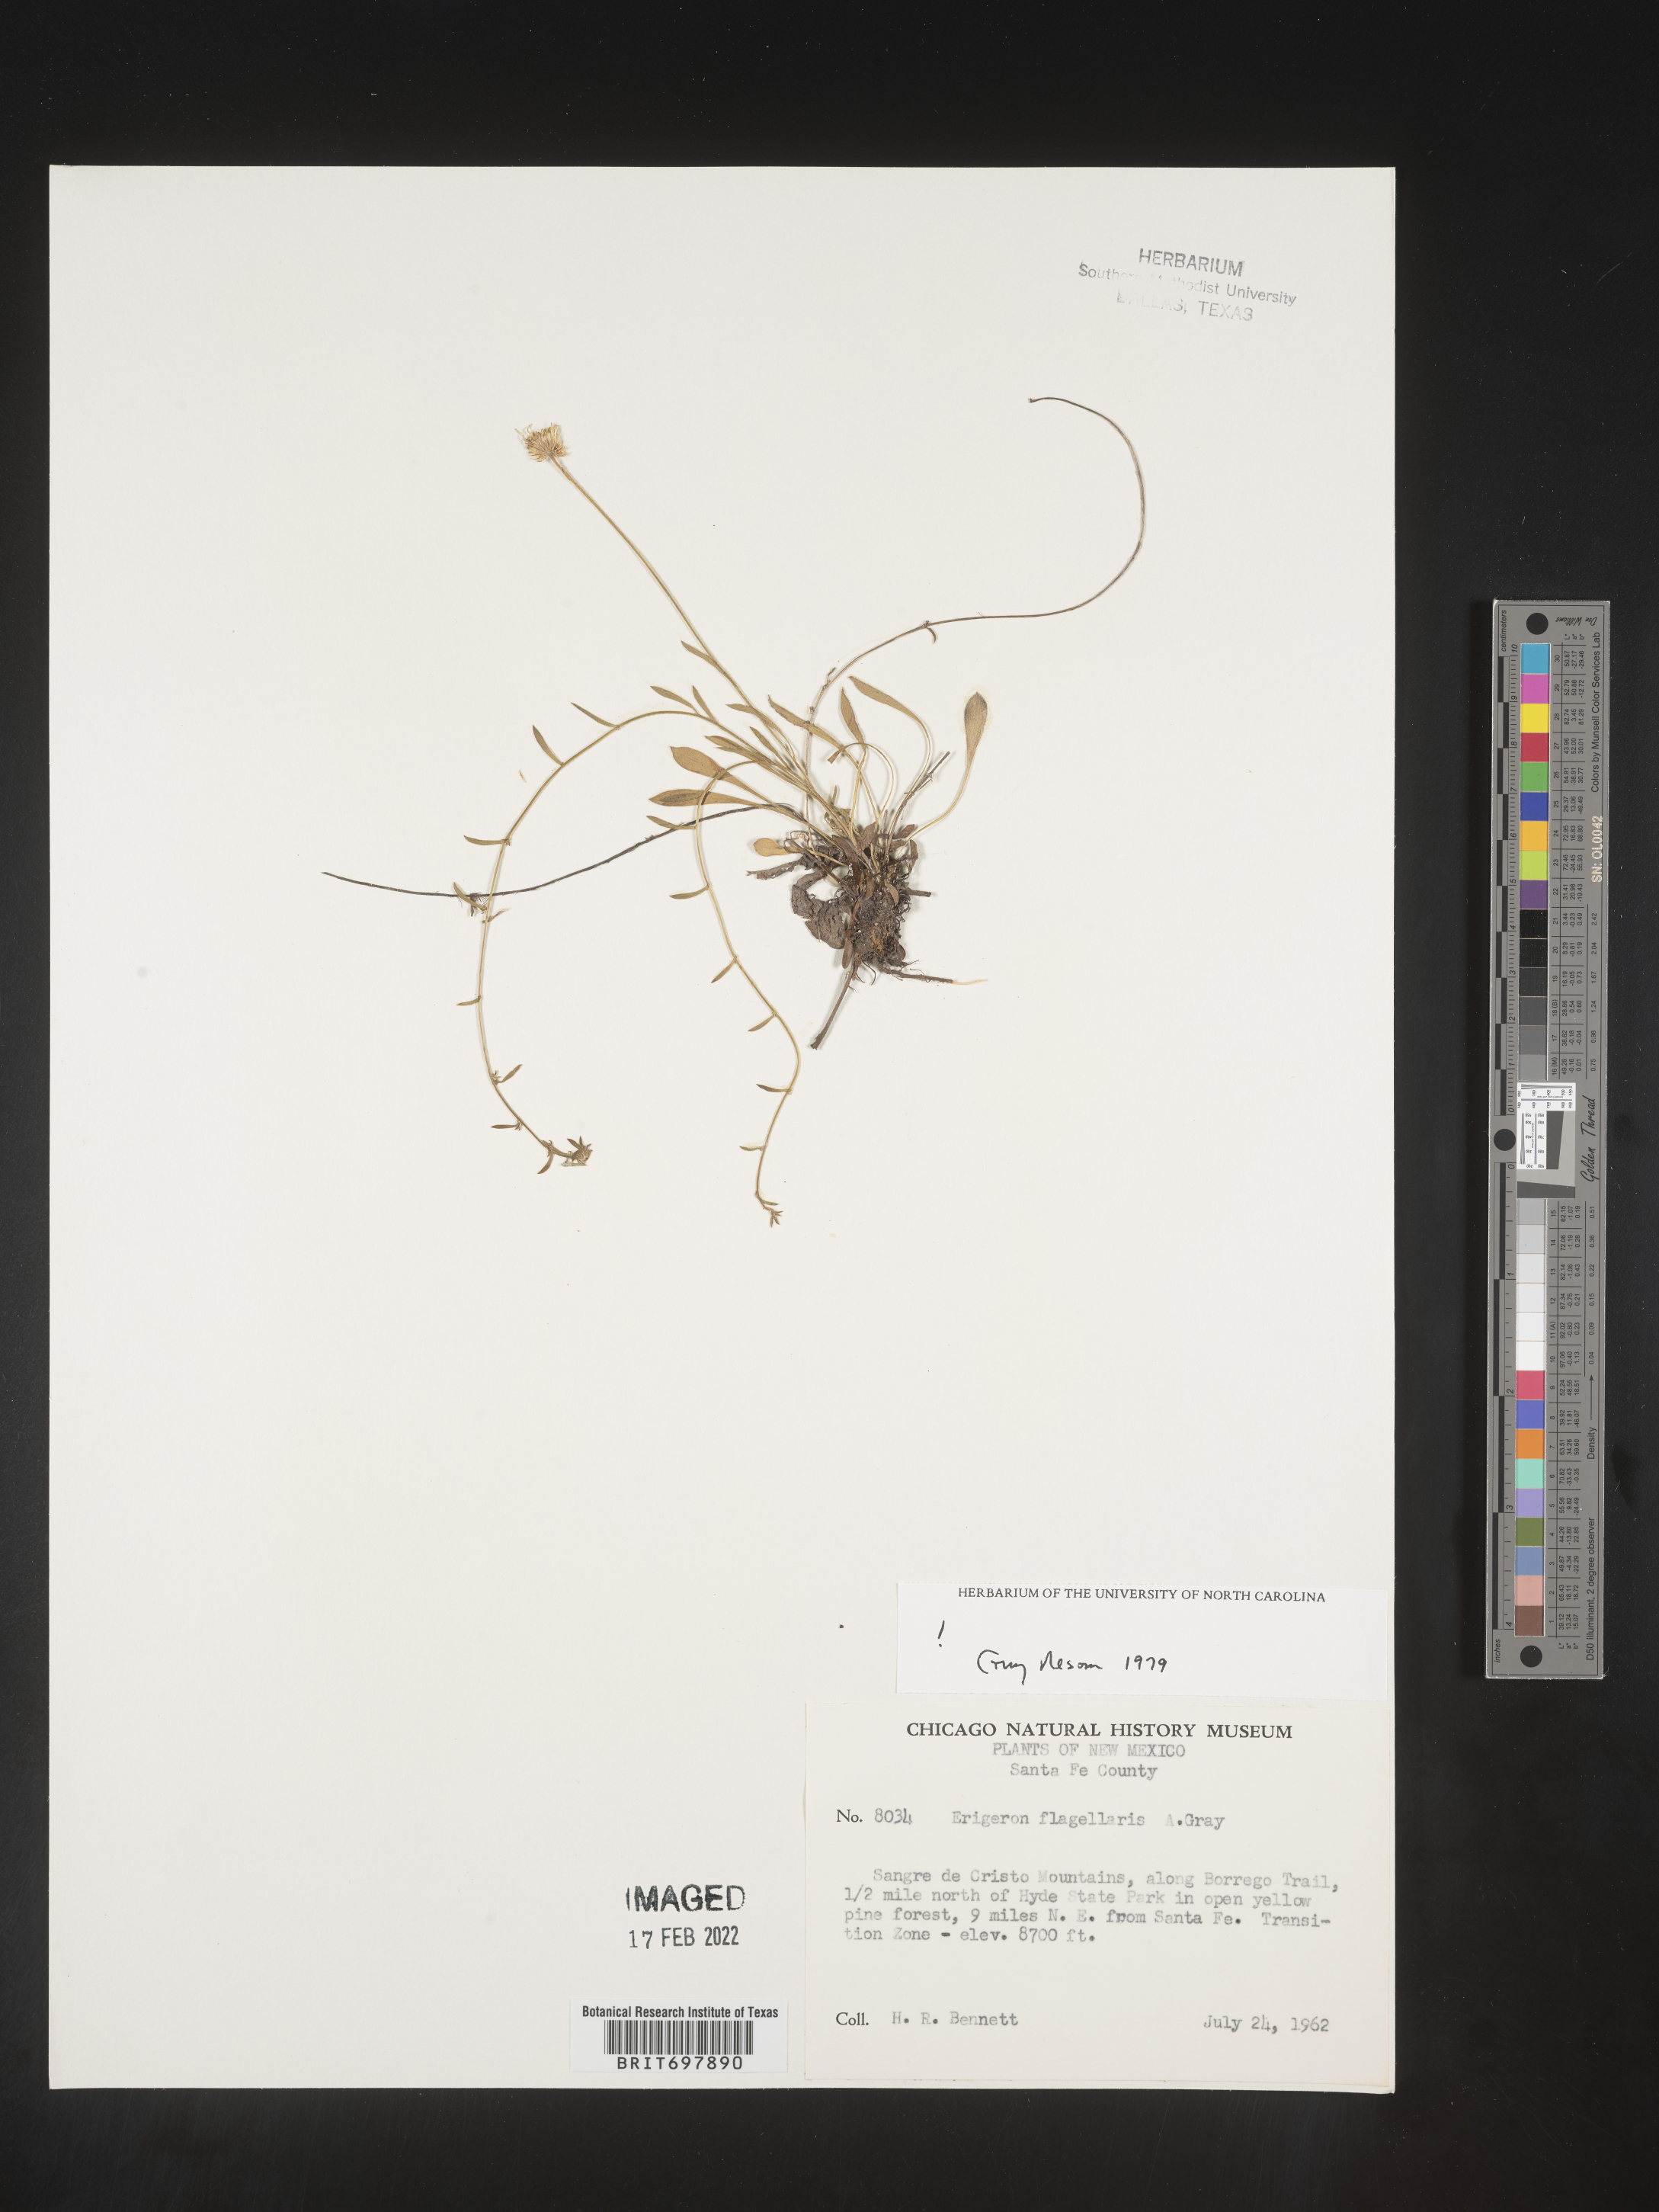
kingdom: Plantae
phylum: Tracheophyta
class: Magnoliopsida
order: Asterales
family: Asteraceae
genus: Erigeron
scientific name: Erigeron flagellaris
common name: Running fleabane
